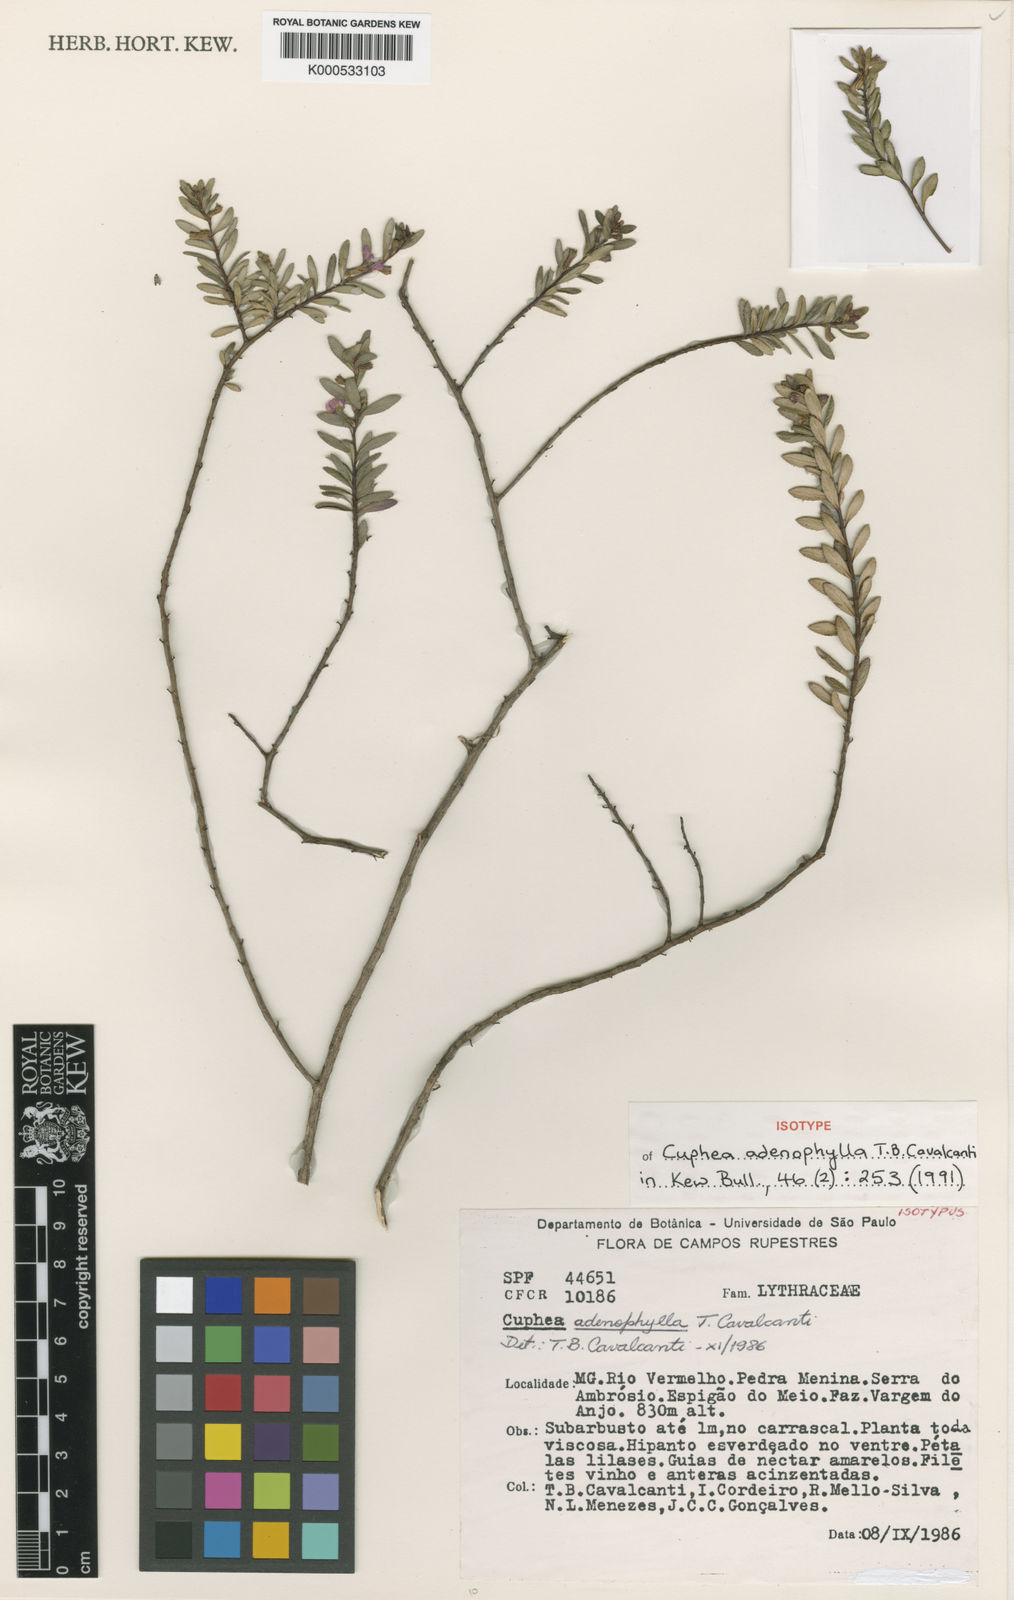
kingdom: Plantae
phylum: Tracheophyta
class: Magnoliopsida
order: Myrtales
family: Lythraceae
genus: Cuphea
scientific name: Cuphea adenophylla
